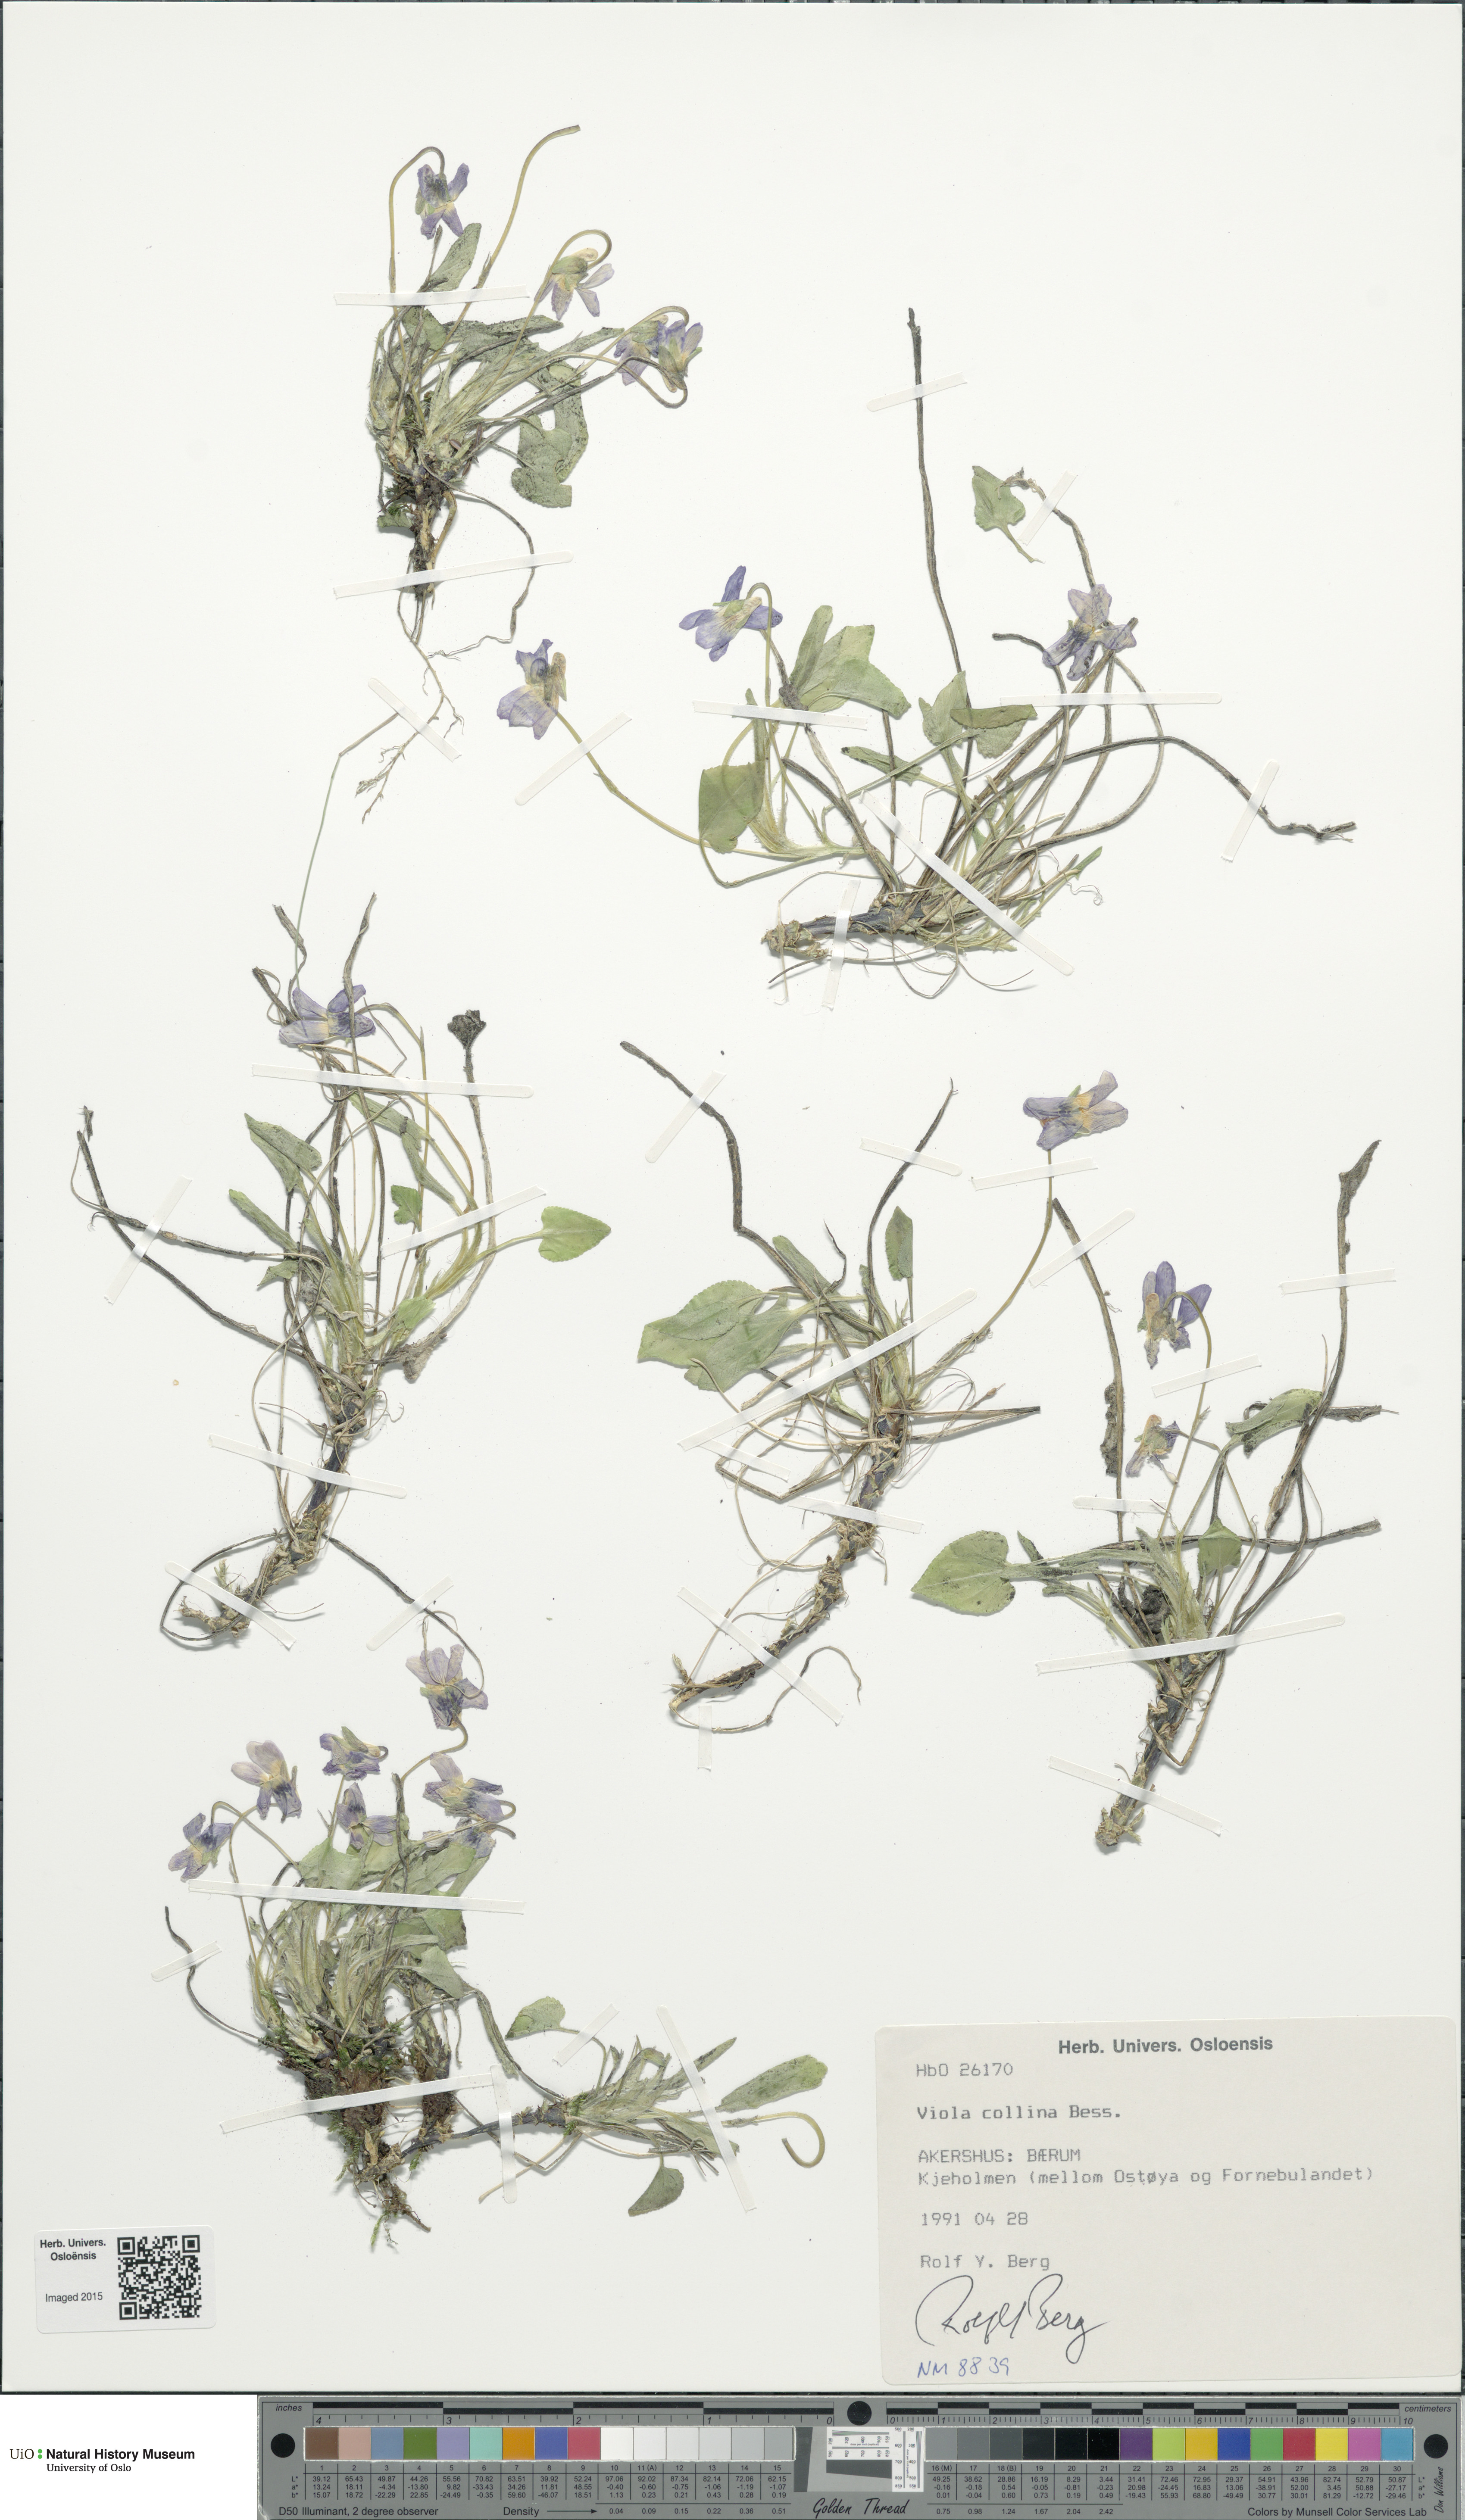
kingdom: Plantae
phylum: Tracheophyta
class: Magnoliopsida
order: Malpighiales
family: Violaceae
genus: Viola
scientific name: Viola collina
